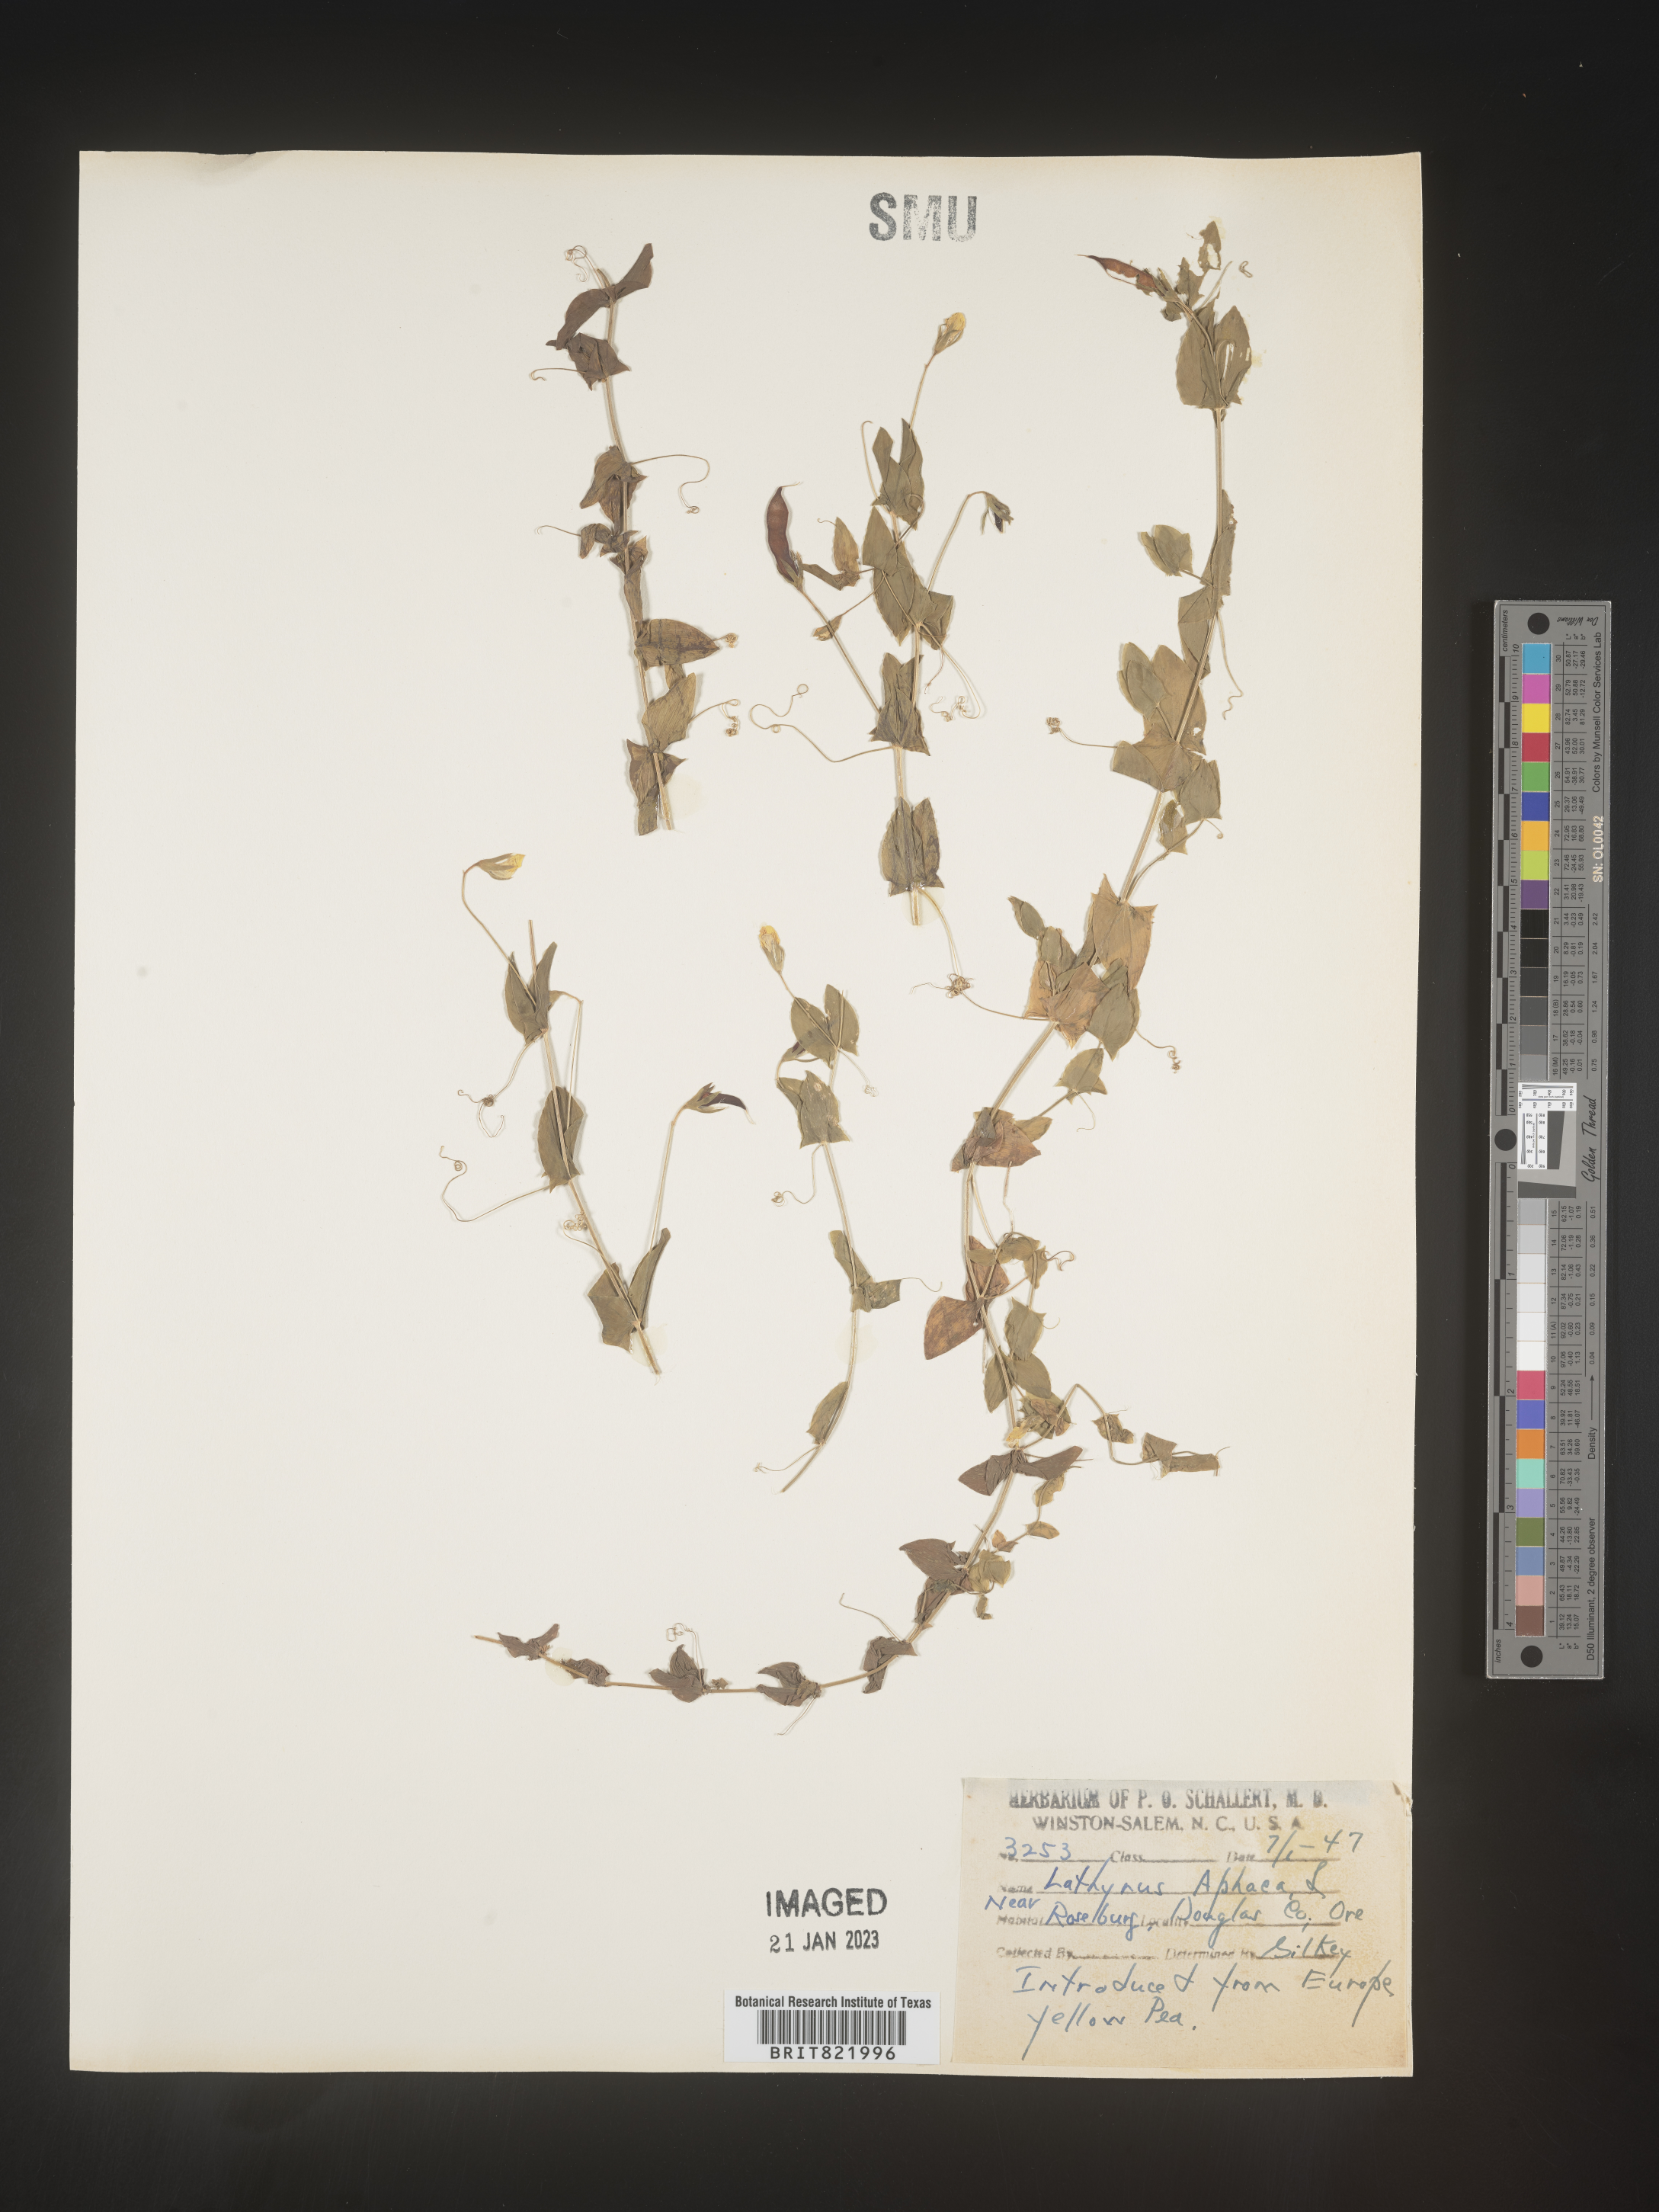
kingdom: Plantae
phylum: Tracheophyta
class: Magnoliopsida
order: Fabales
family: Fabaceae
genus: Lathyrus
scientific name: Lathyrus
